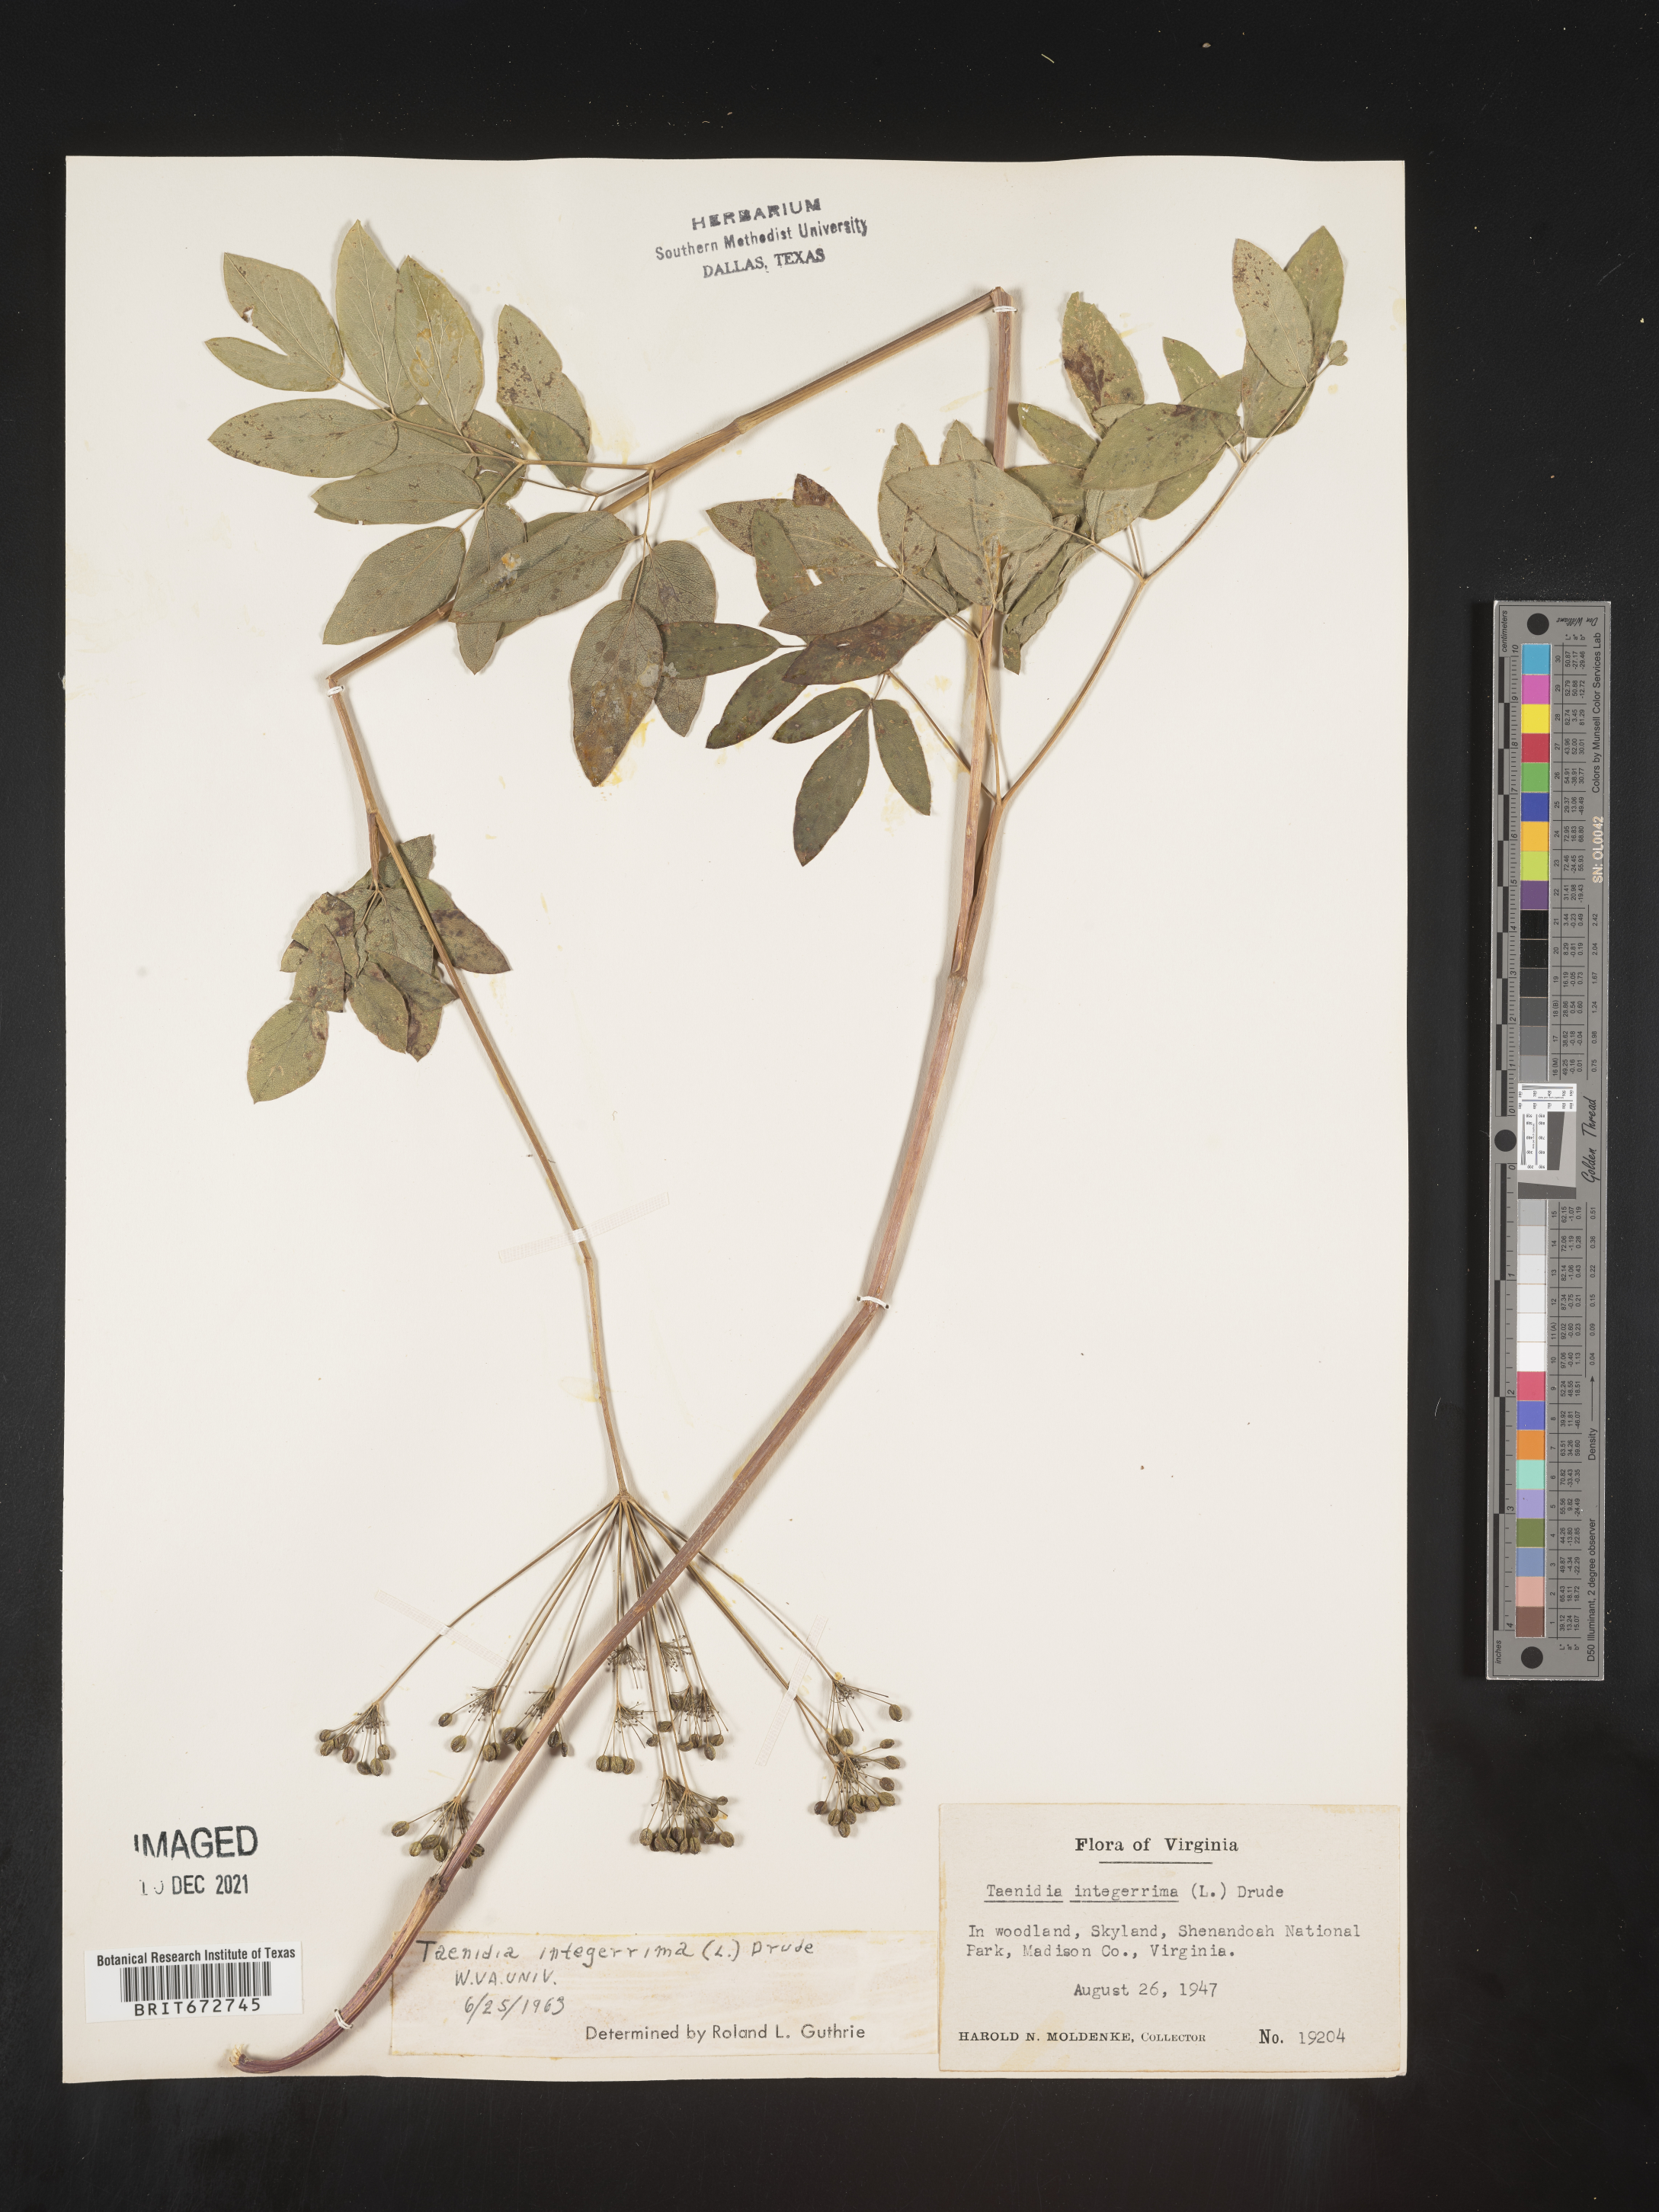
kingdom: Plantae
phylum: Tracheophyta
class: Magnoliopsida
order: Apiales
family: Apiaceae
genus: Taenidia
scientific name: Taenidia
